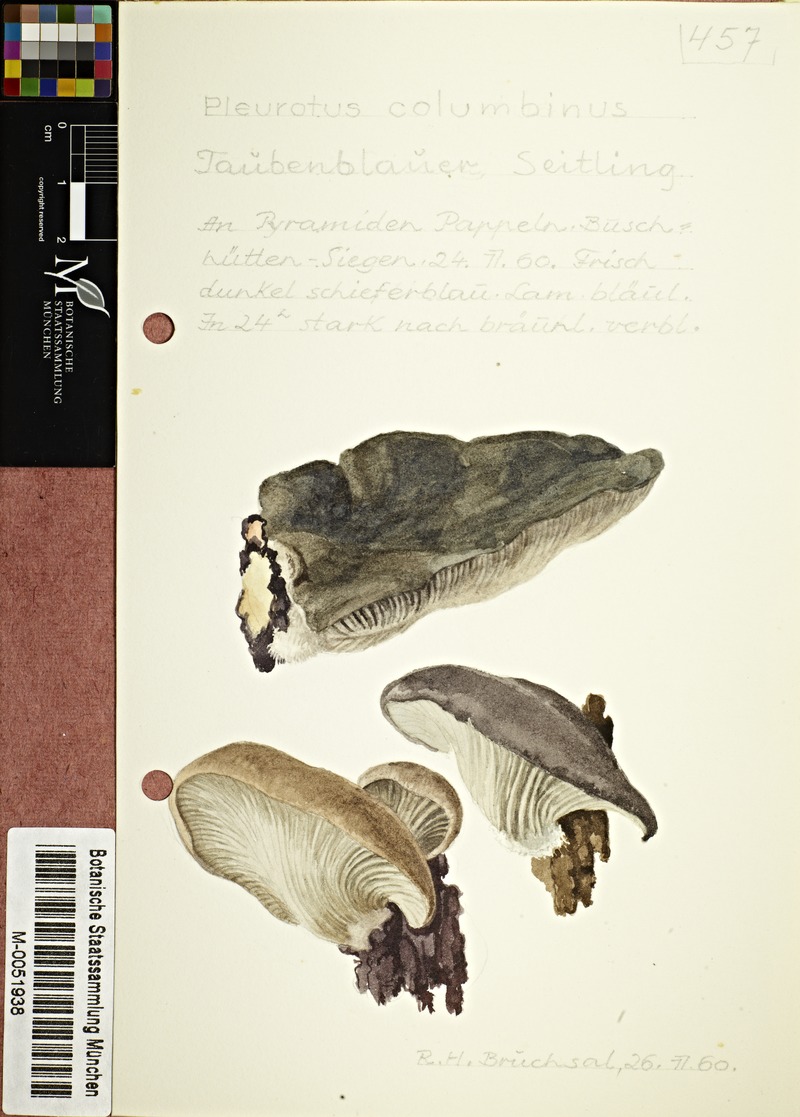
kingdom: Fungi
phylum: Basidiomycota
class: Agaricomycetes
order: Agaricales
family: Pleurotaceae
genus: Pleurotus
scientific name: Pleurotus columbinus
